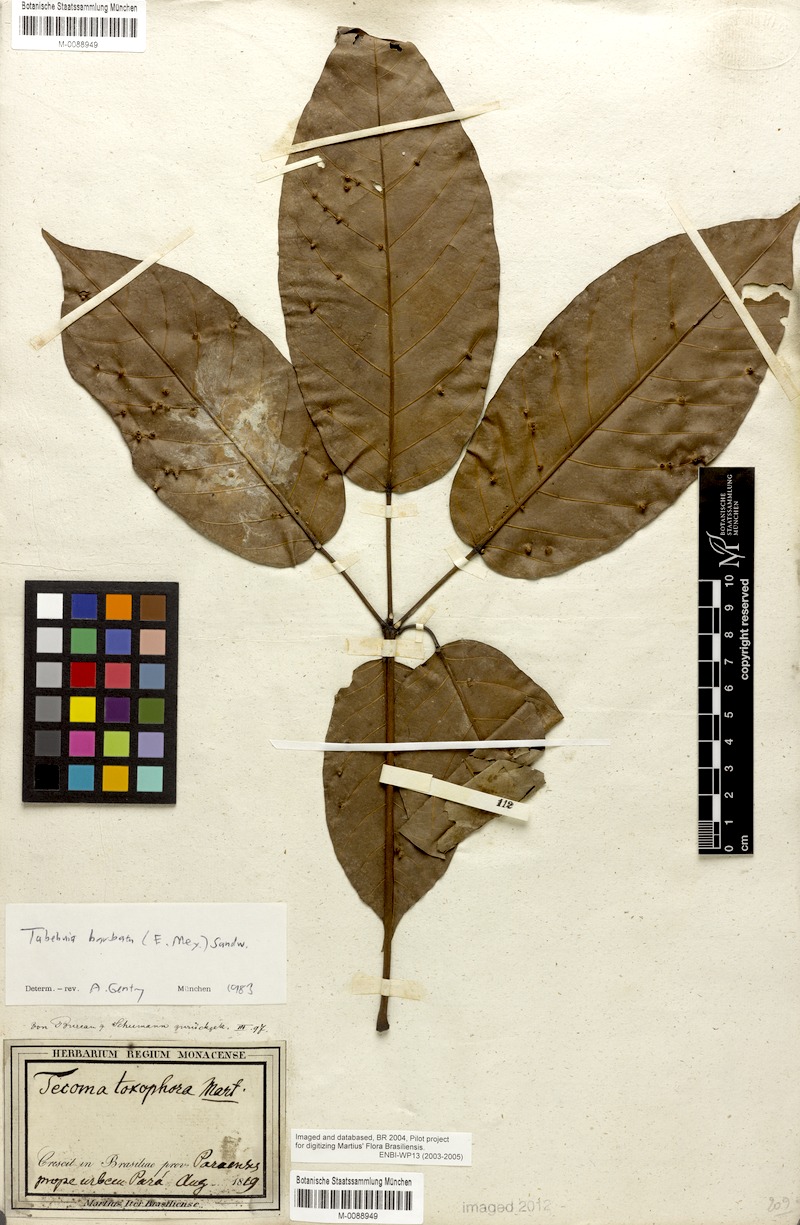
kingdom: Plantae
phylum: Tracheophyta
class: Magnoliopsida
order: Lamiales
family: Bignoniaceae
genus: Handroanthus
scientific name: Handroanthus barbatus
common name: Trumpet trees
